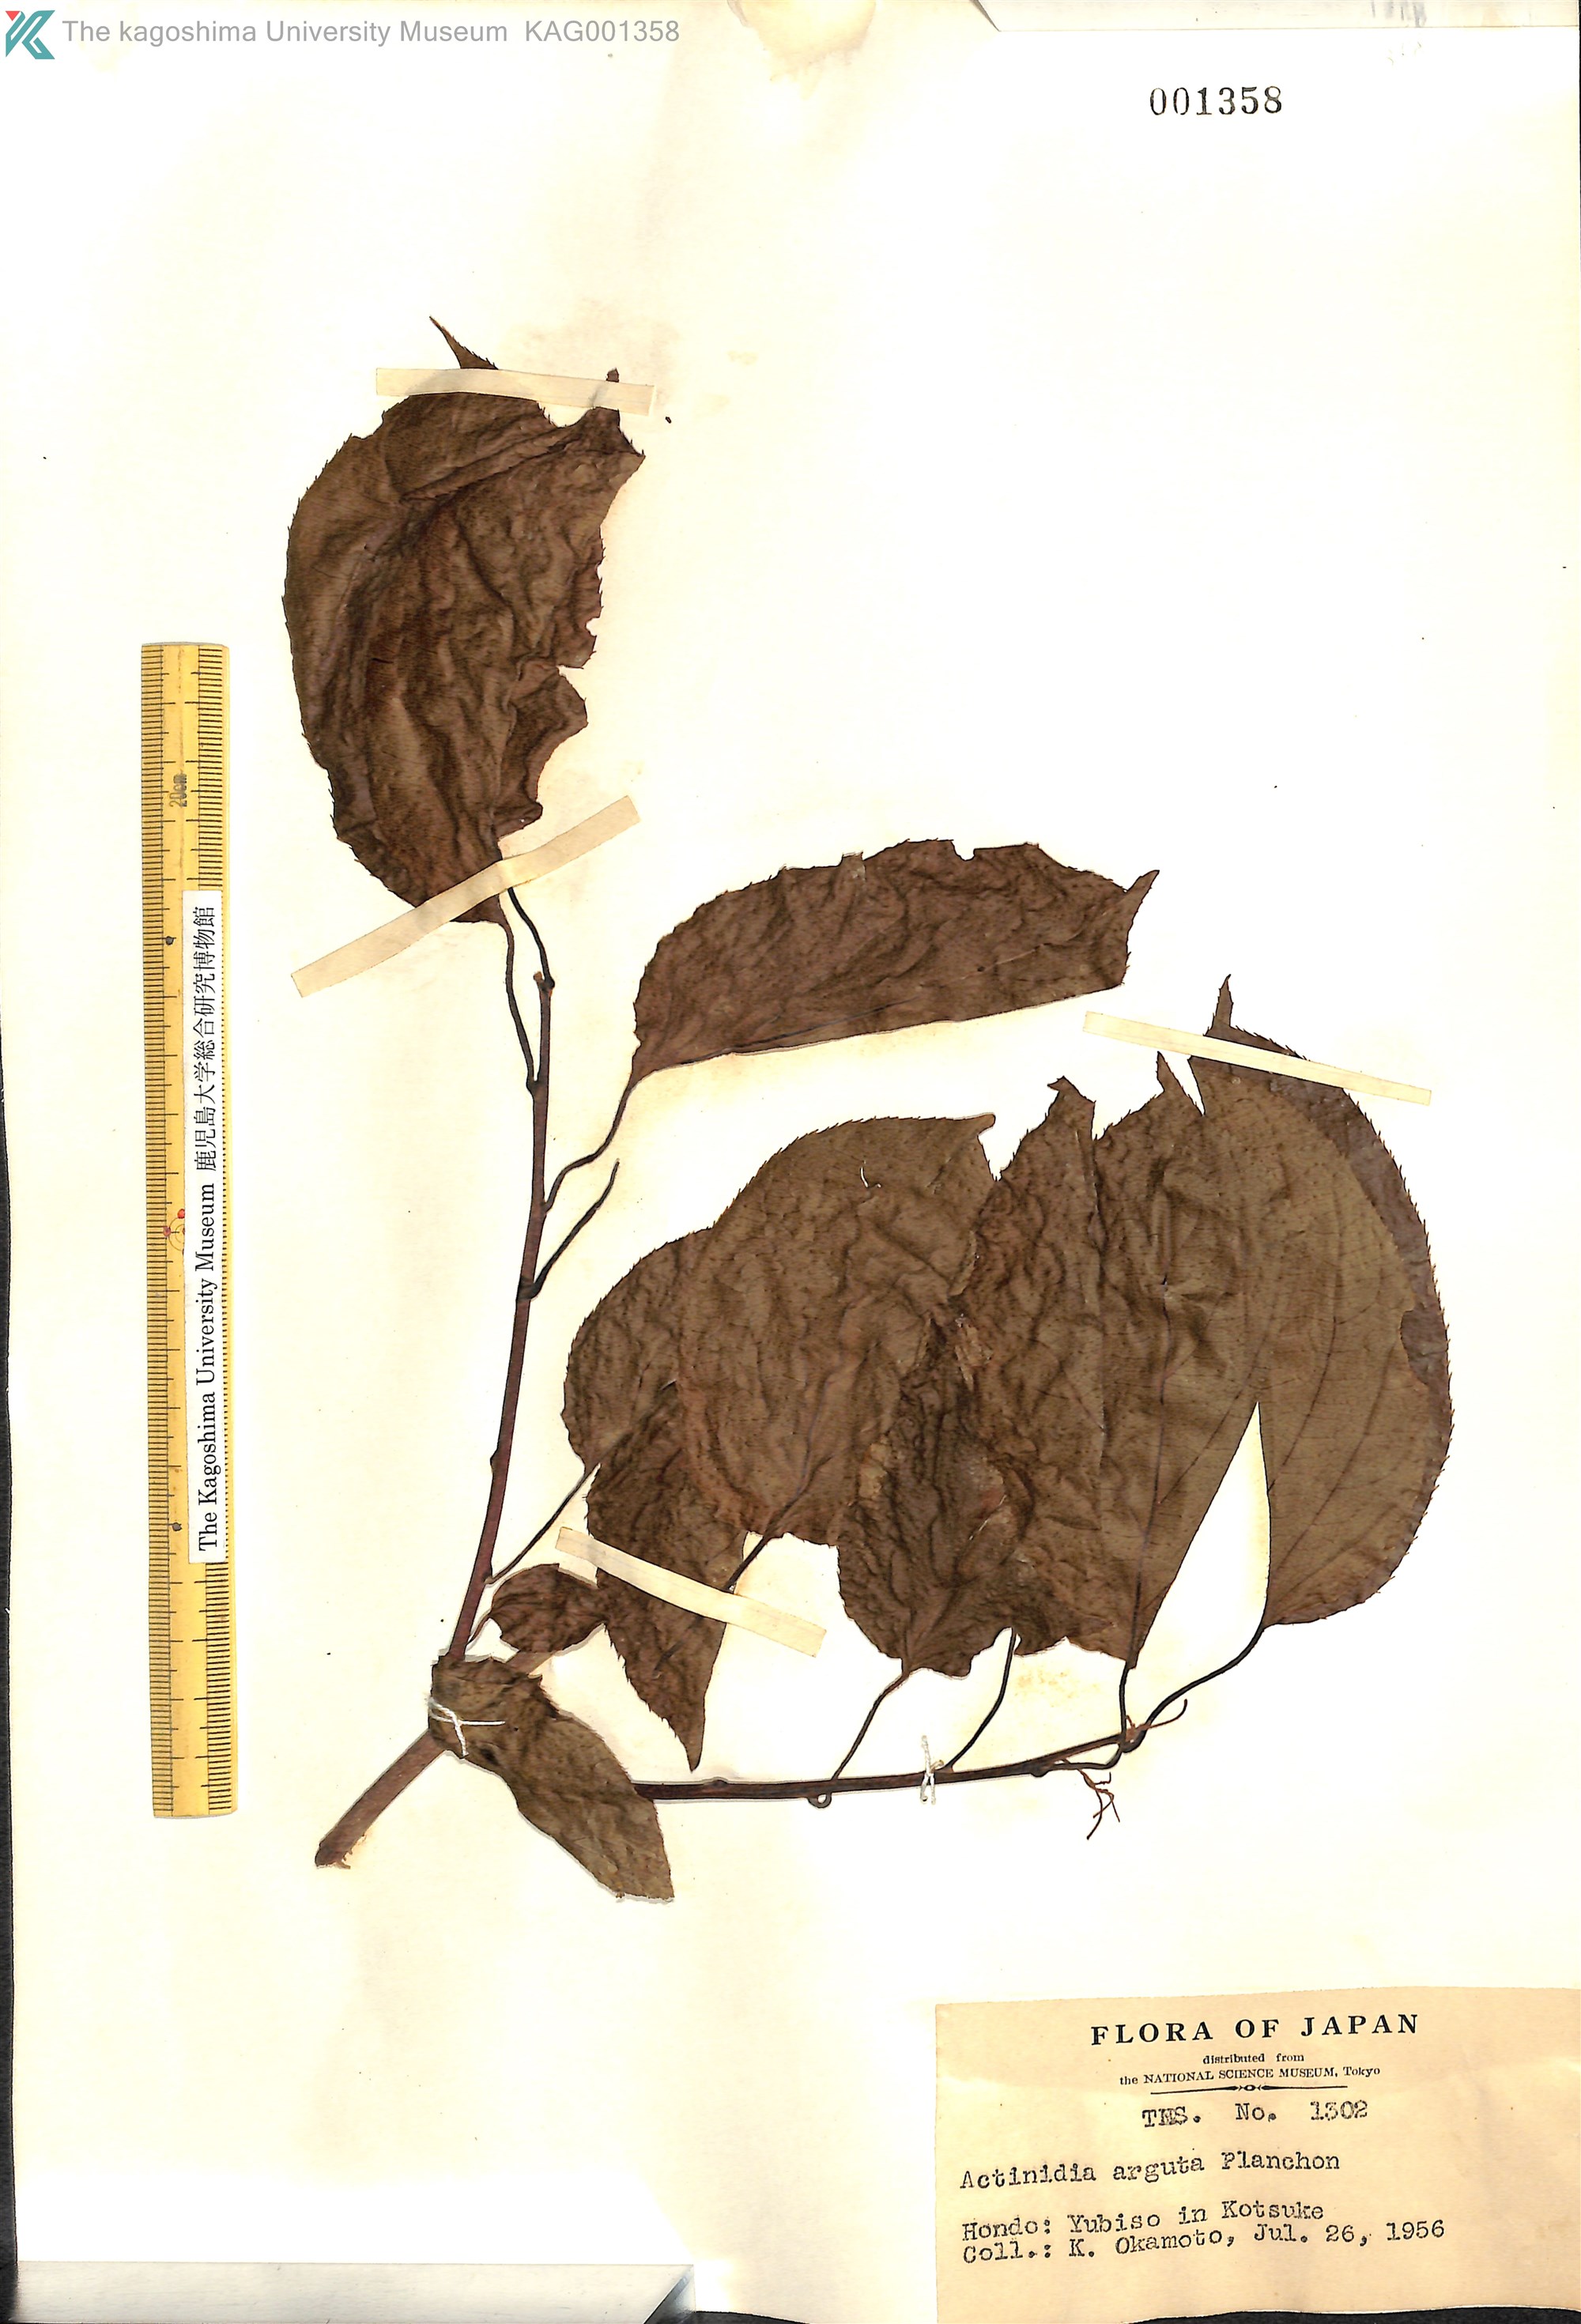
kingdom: Plantae
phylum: Tracheophyta
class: Magnoliopsida
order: Ericales
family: Actinidiaceae
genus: Actinidia
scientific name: Actinidia arguta
